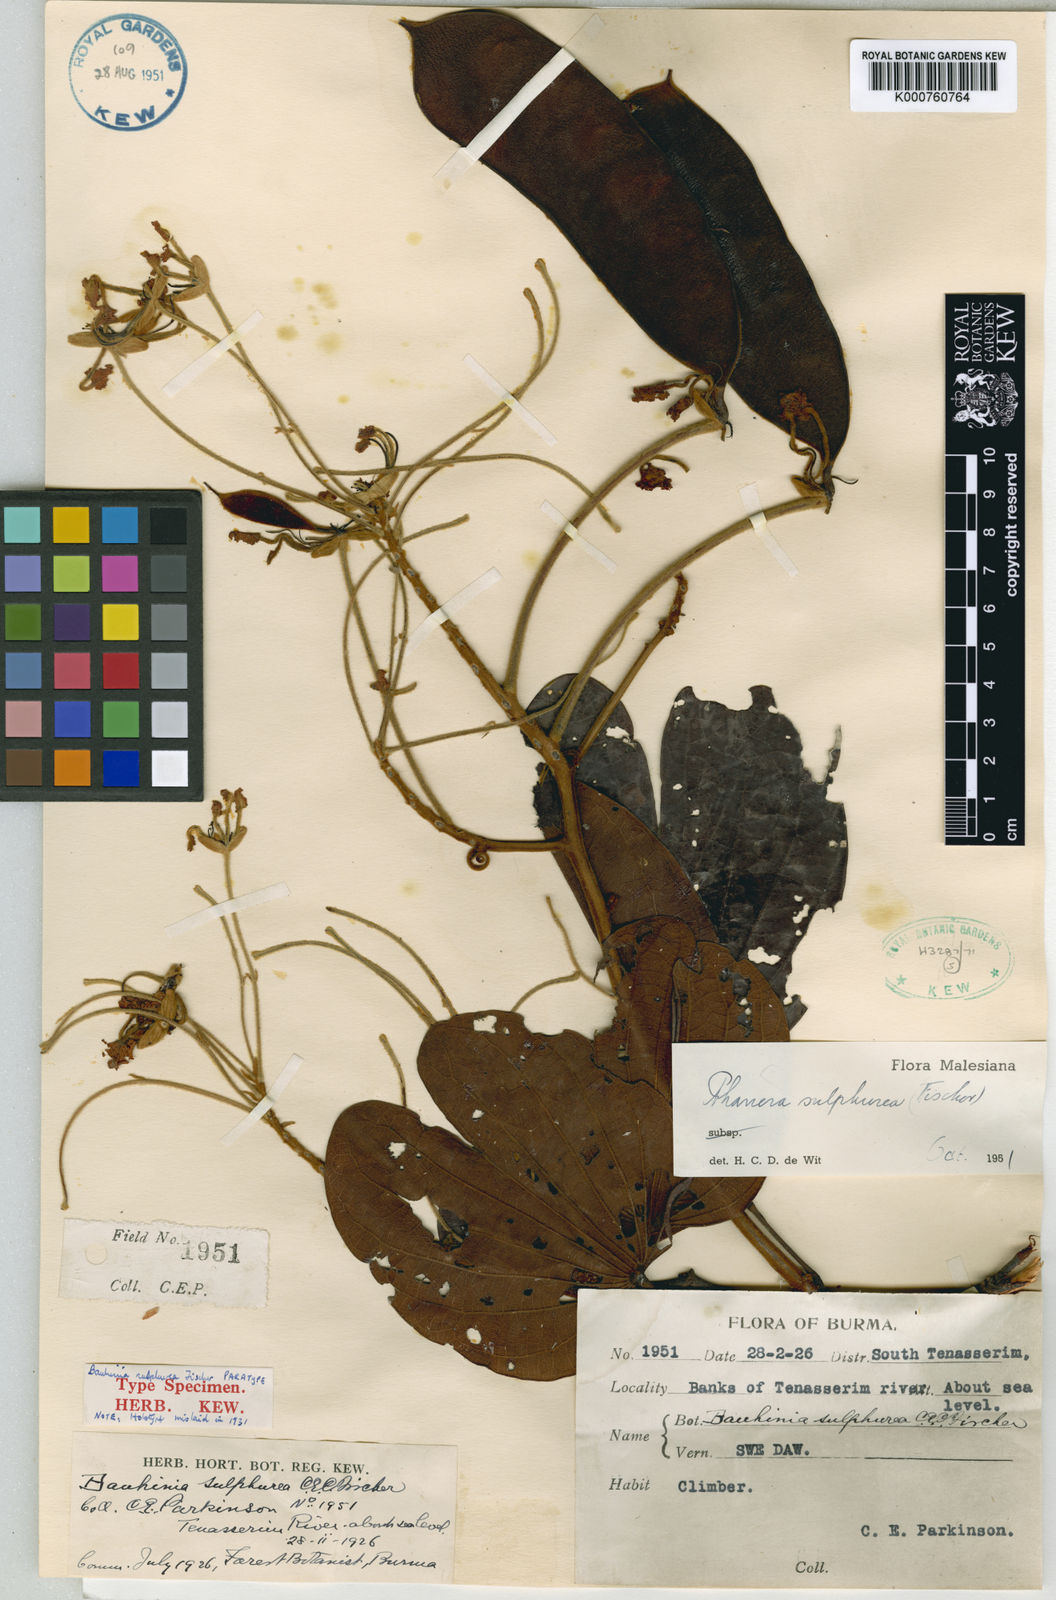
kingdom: Plantae
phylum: Tracheophyta
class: Magnoliopsida
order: Fabales
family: Fabaceae
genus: Phanera
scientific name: Phanera sulphurea
